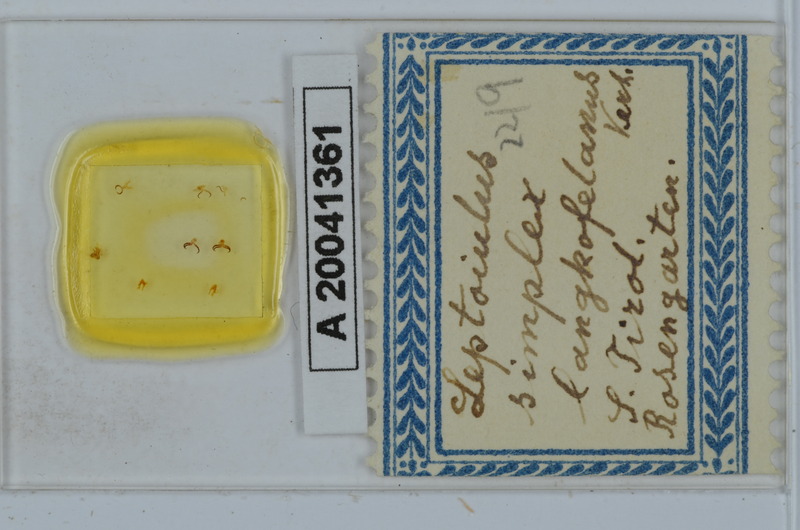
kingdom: Animalia
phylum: Arthropoda
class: Diplopoda
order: Julida
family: Julidae
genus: Leptoiulus
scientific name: Leptoiulus simplex
